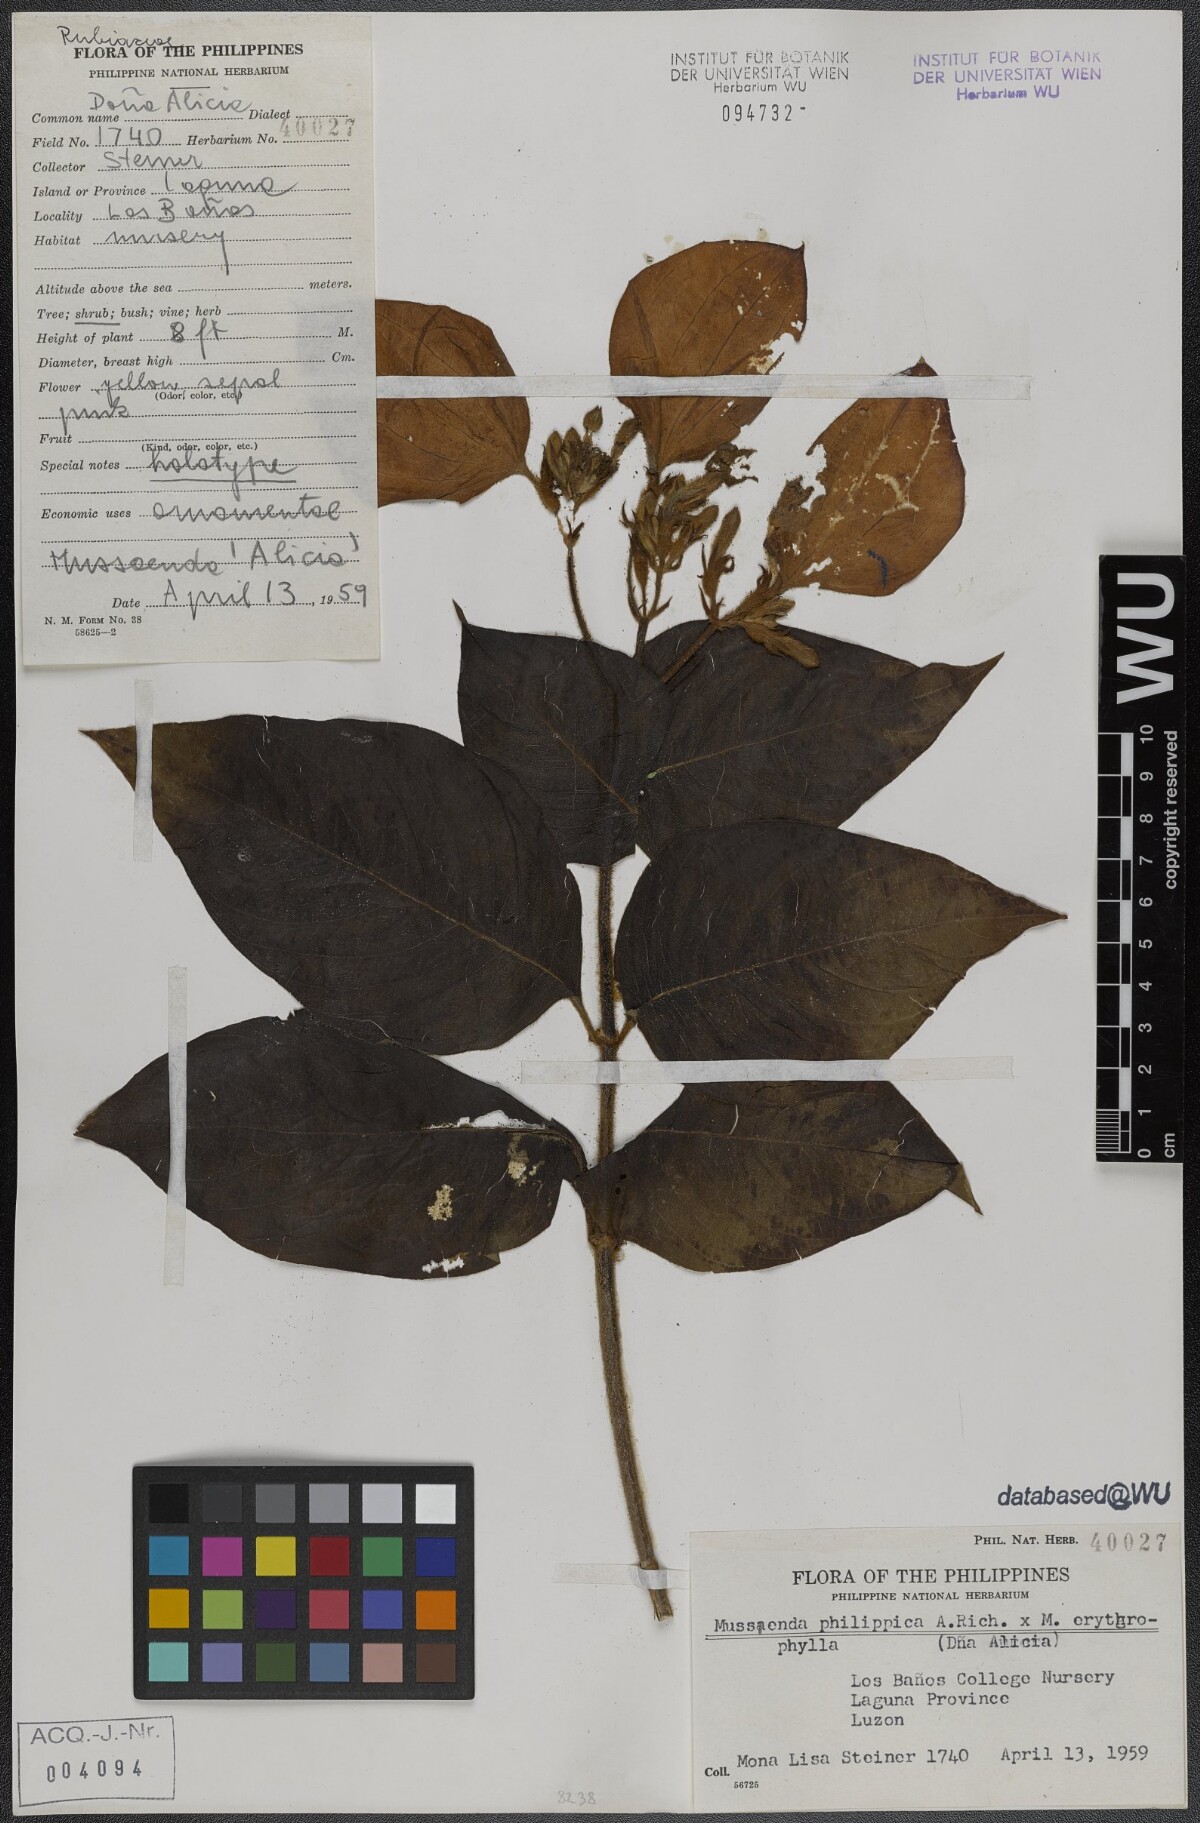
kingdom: Plantae
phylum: Tracheophyta
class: Magnoliopsida
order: Gentianales
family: Rubiaceae
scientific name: Rubiaceae
